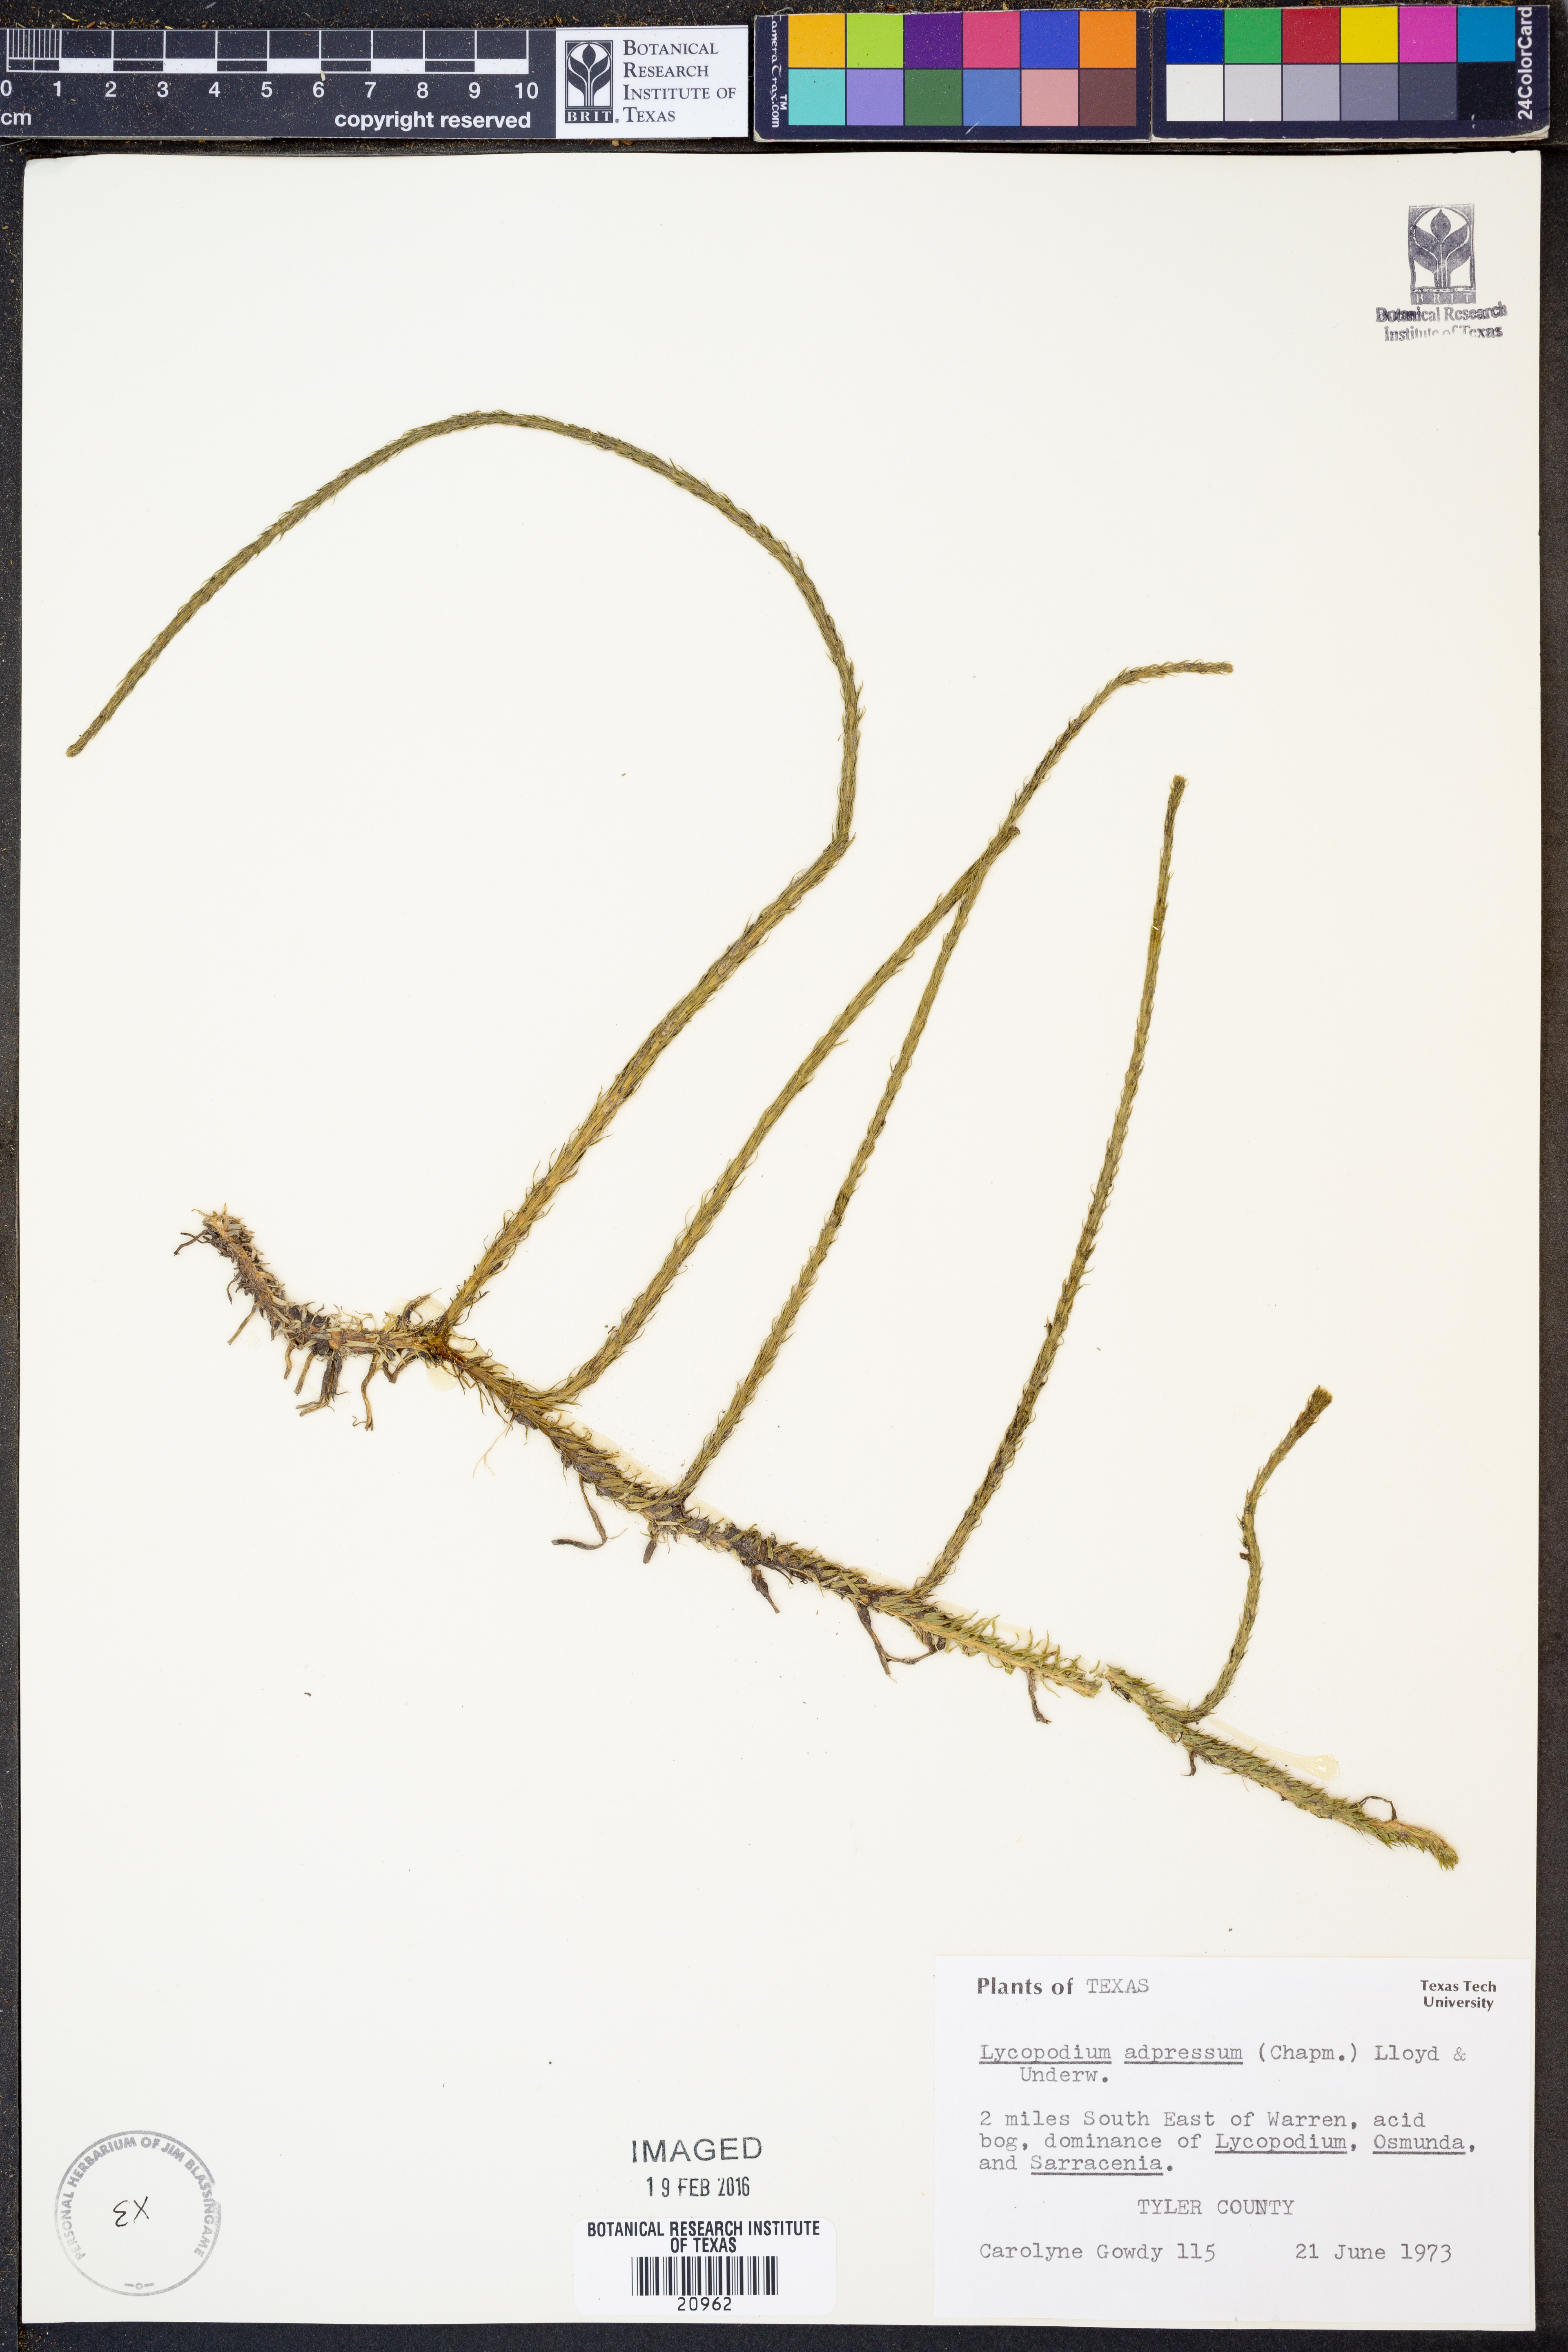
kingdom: Plantae
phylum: Tracheophyta
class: Lycopodiopsida
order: Lycopodiales
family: Lycopodiaceae
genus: Lycopodiella
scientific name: Lycopodiella appressa
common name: Appressed bog clubmoss
